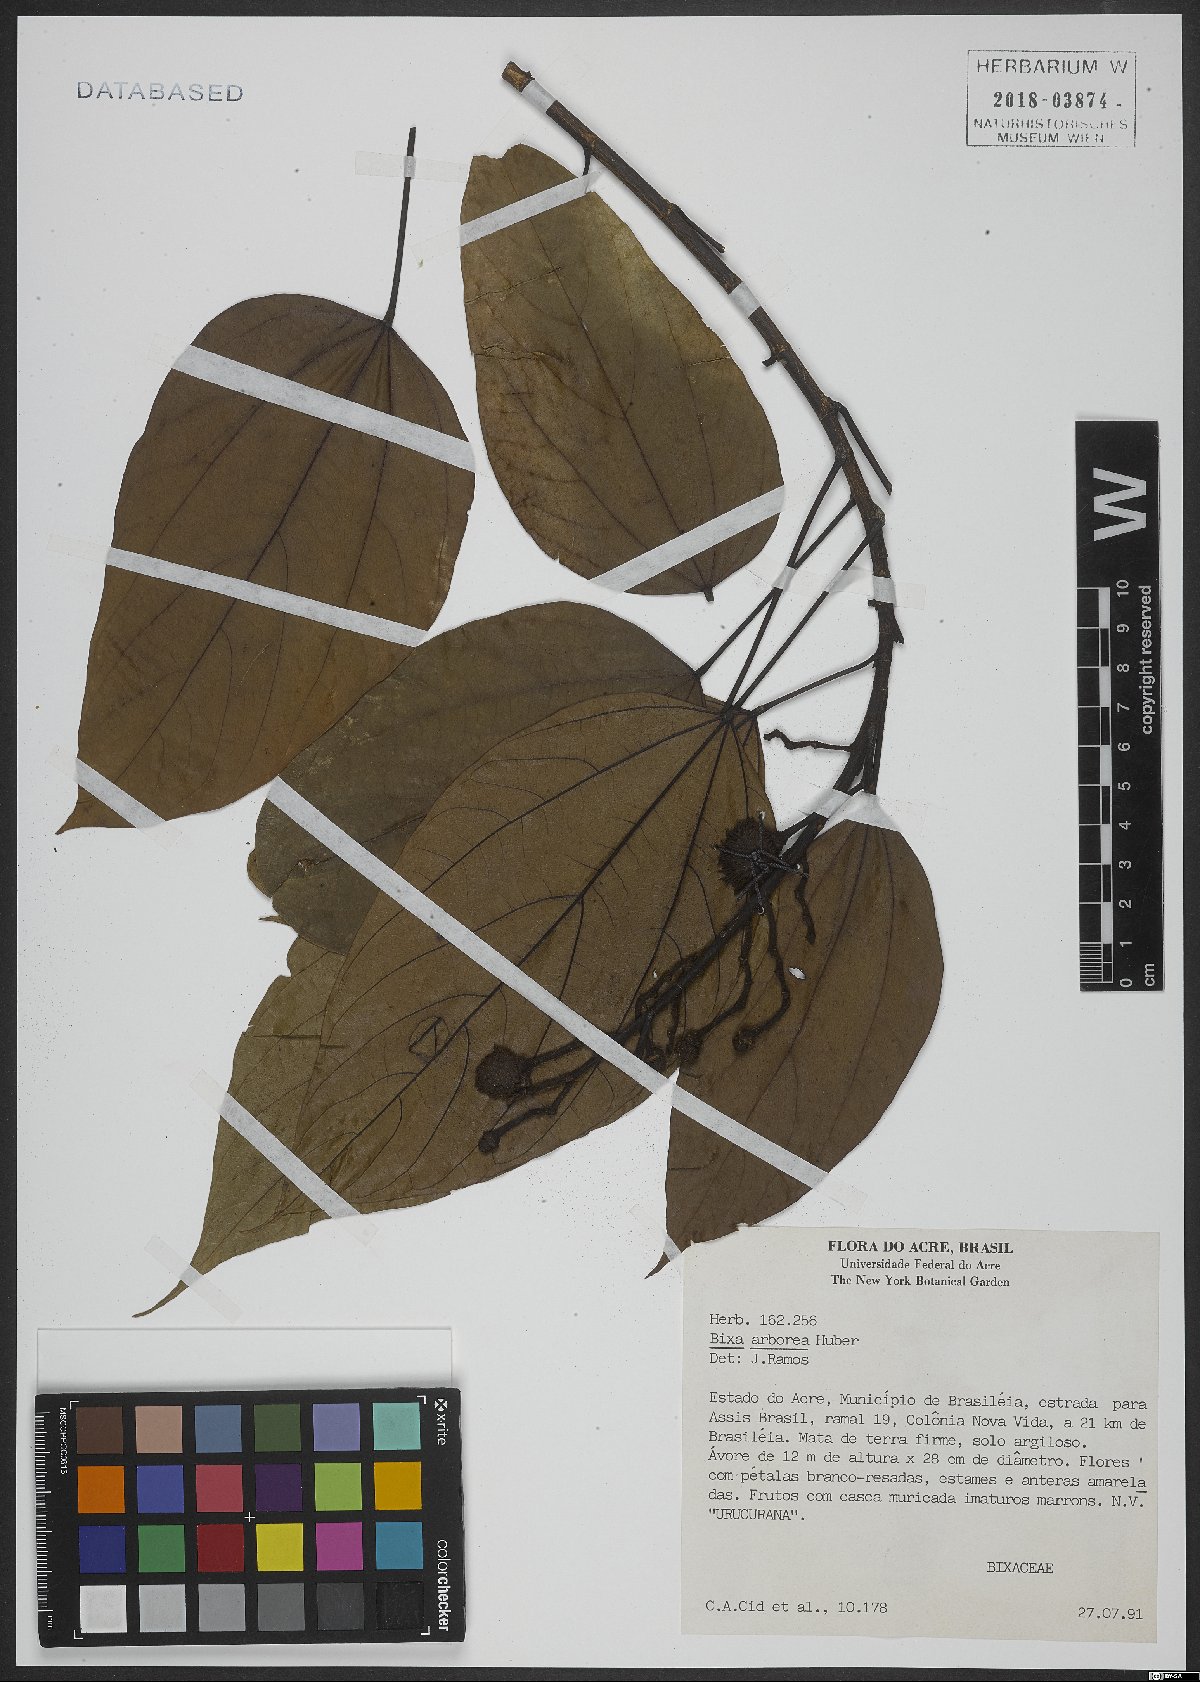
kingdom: Plantae
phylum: Tracheophyta
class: Magnoliopsida
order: Malvales
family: Bixaceae
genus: Bixa
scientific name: Bixa arborea
